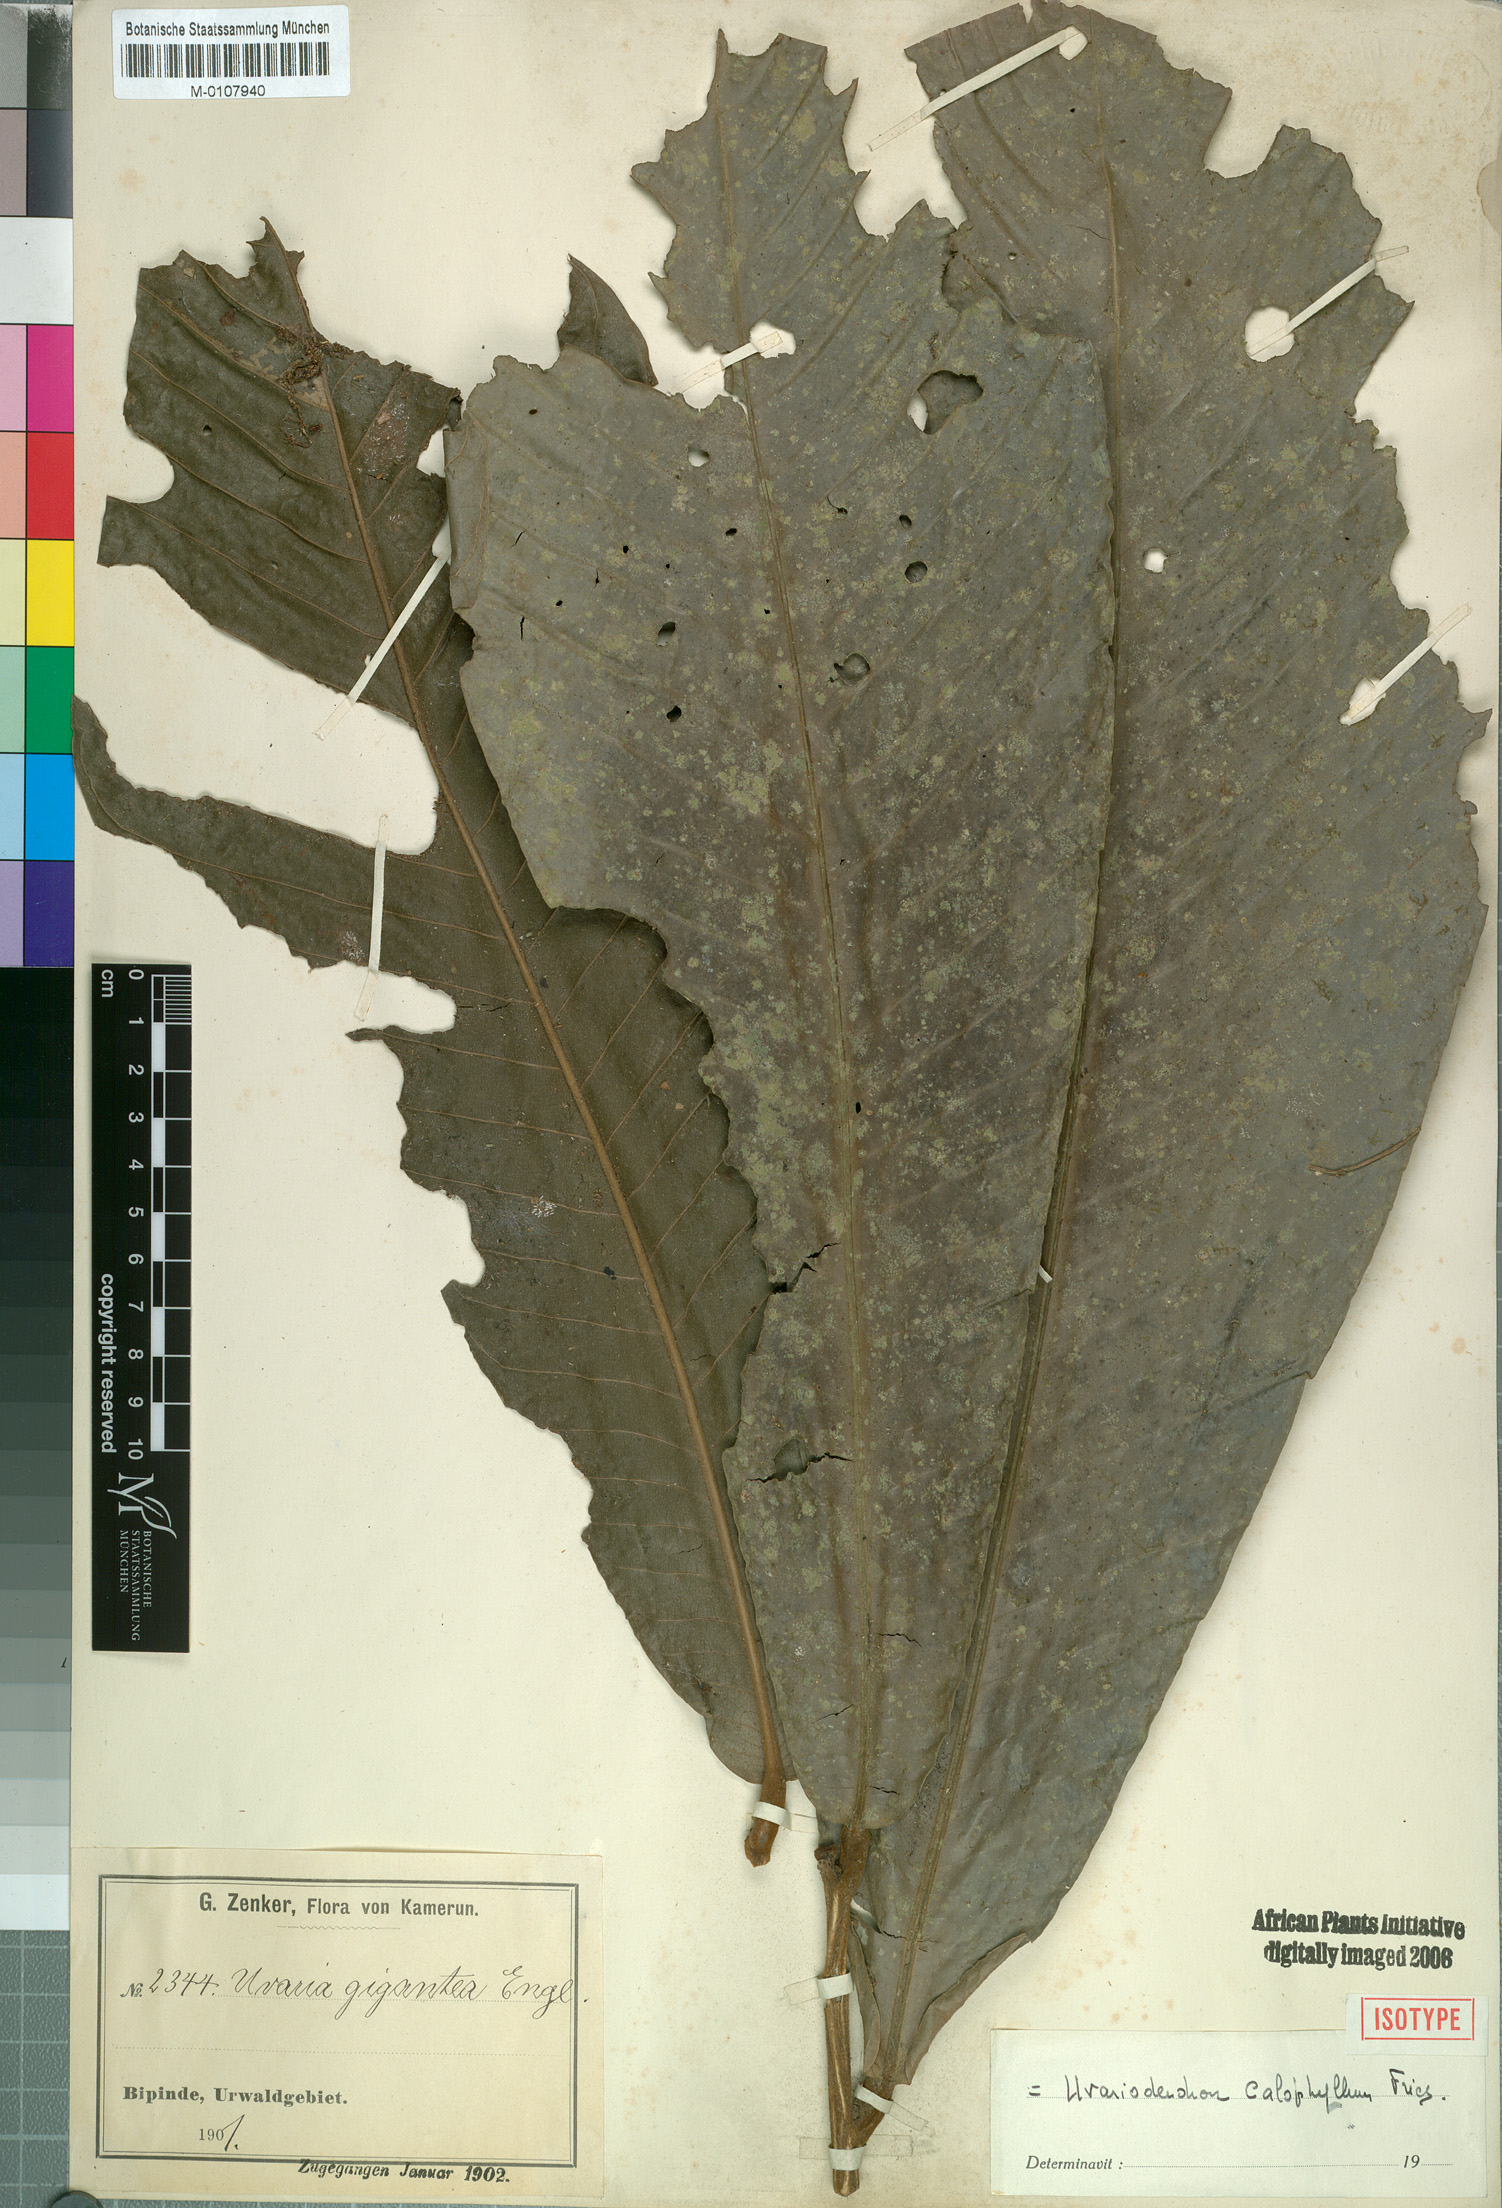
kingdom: Plantae
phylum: Tracheophyta
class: Magnoliopsida
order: Magnoliales
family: Annonaceae
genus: Uvariodendron
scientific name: Uvariodendron calophyllum
